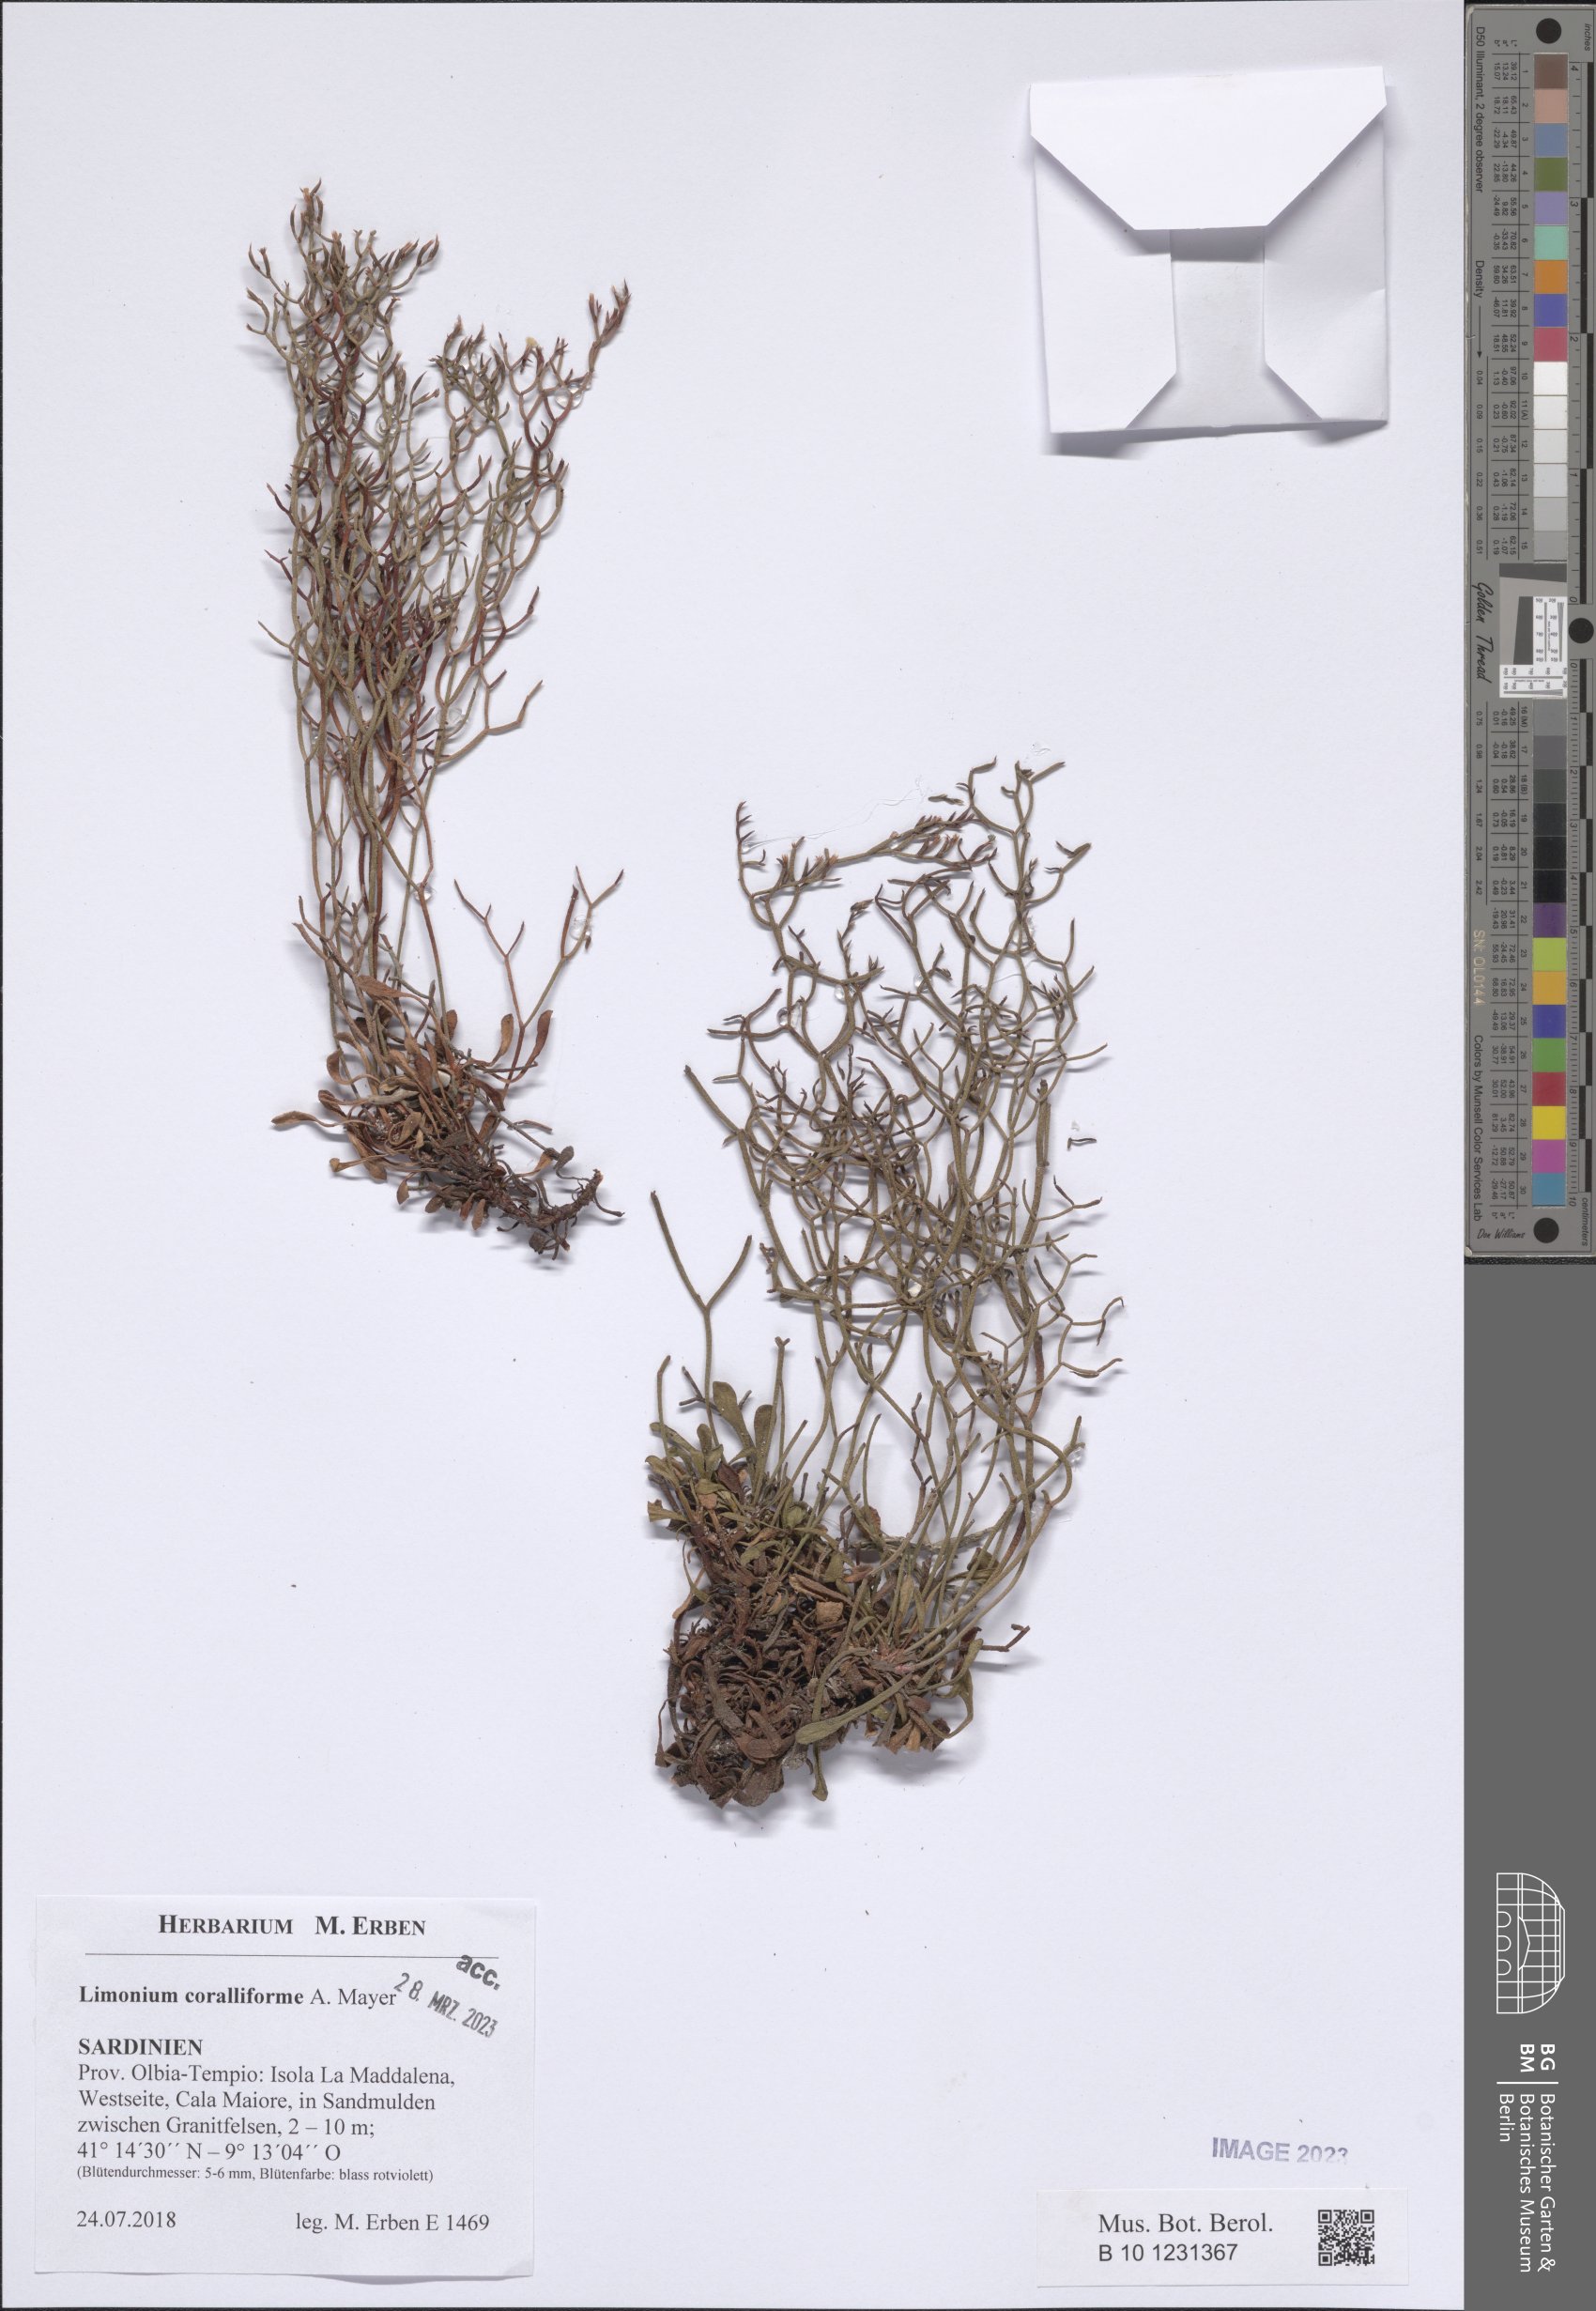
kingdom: Plantae
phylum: Tracheophyta
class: Magnoliopsida
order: Caryophyllales
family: Plumbaginaceae
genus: Limonium
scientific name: Limonium coralliforme
